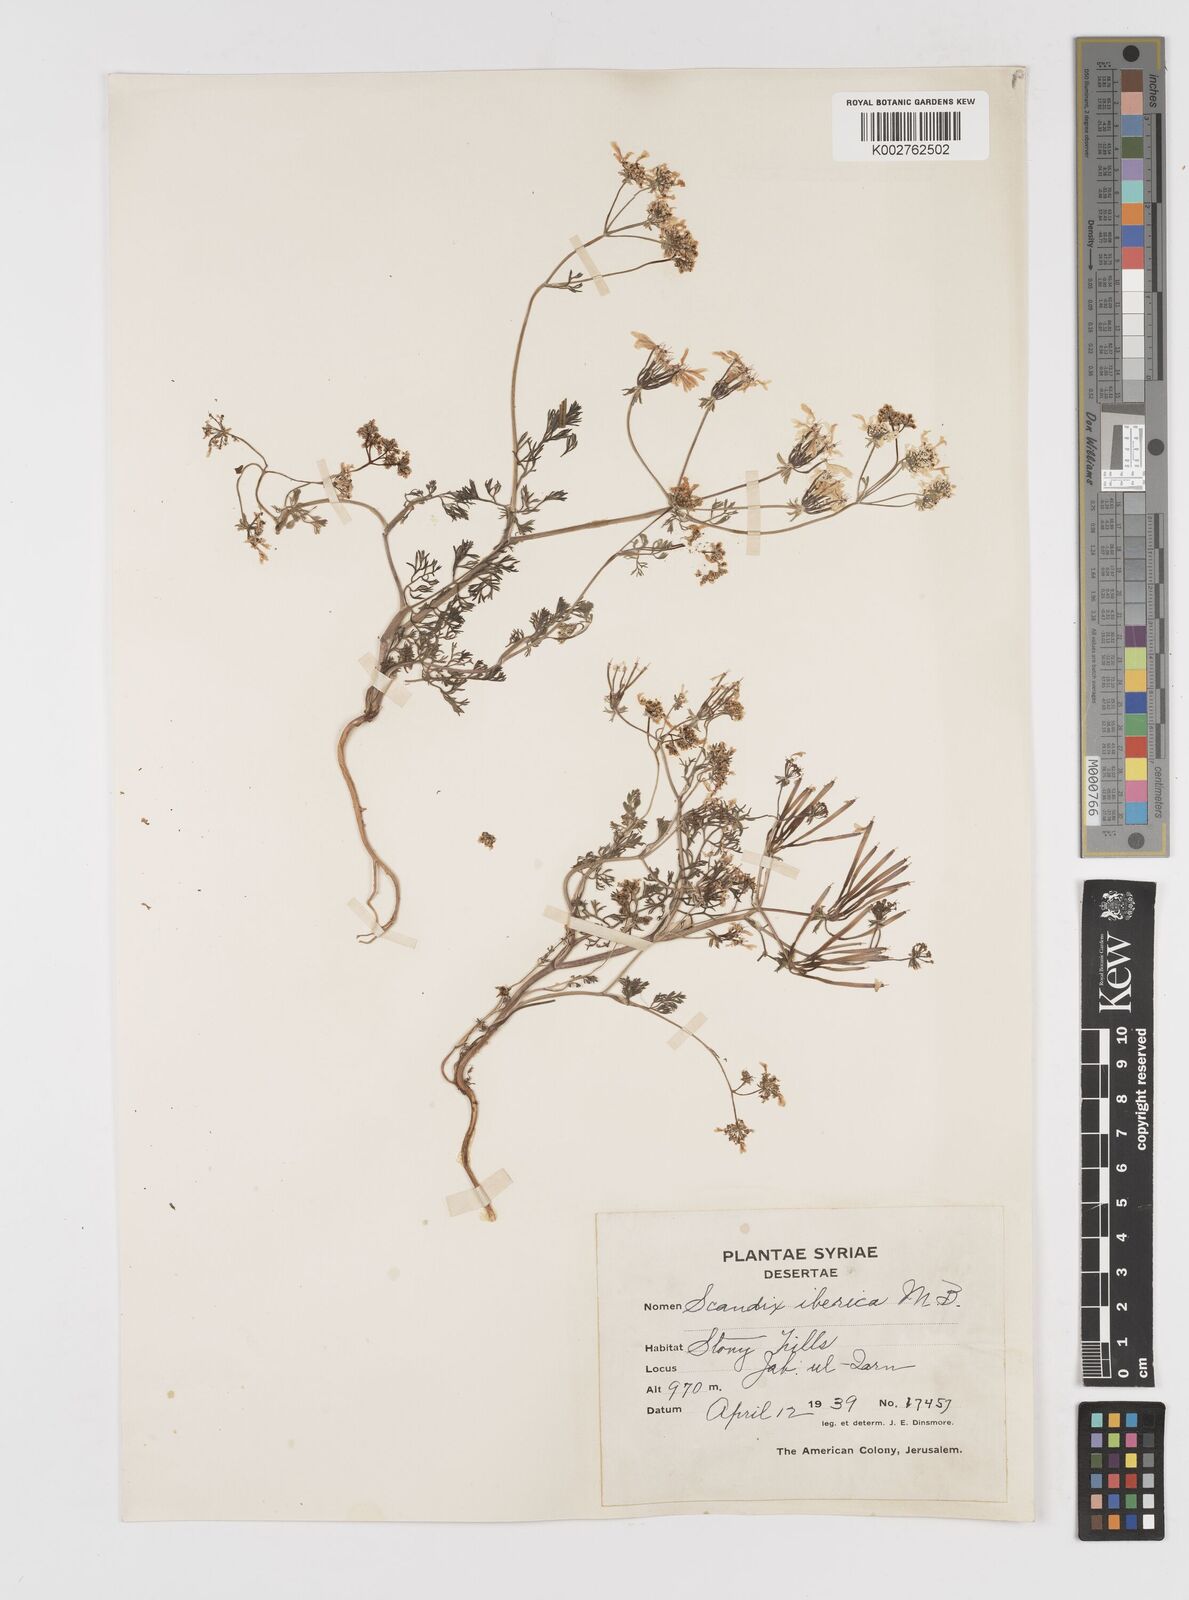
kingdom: Plantae
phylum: Tracheophyta
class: Magnoliopsida
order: Apiales
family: Apiaceae
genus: Scandix
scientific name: Scandix iberica
